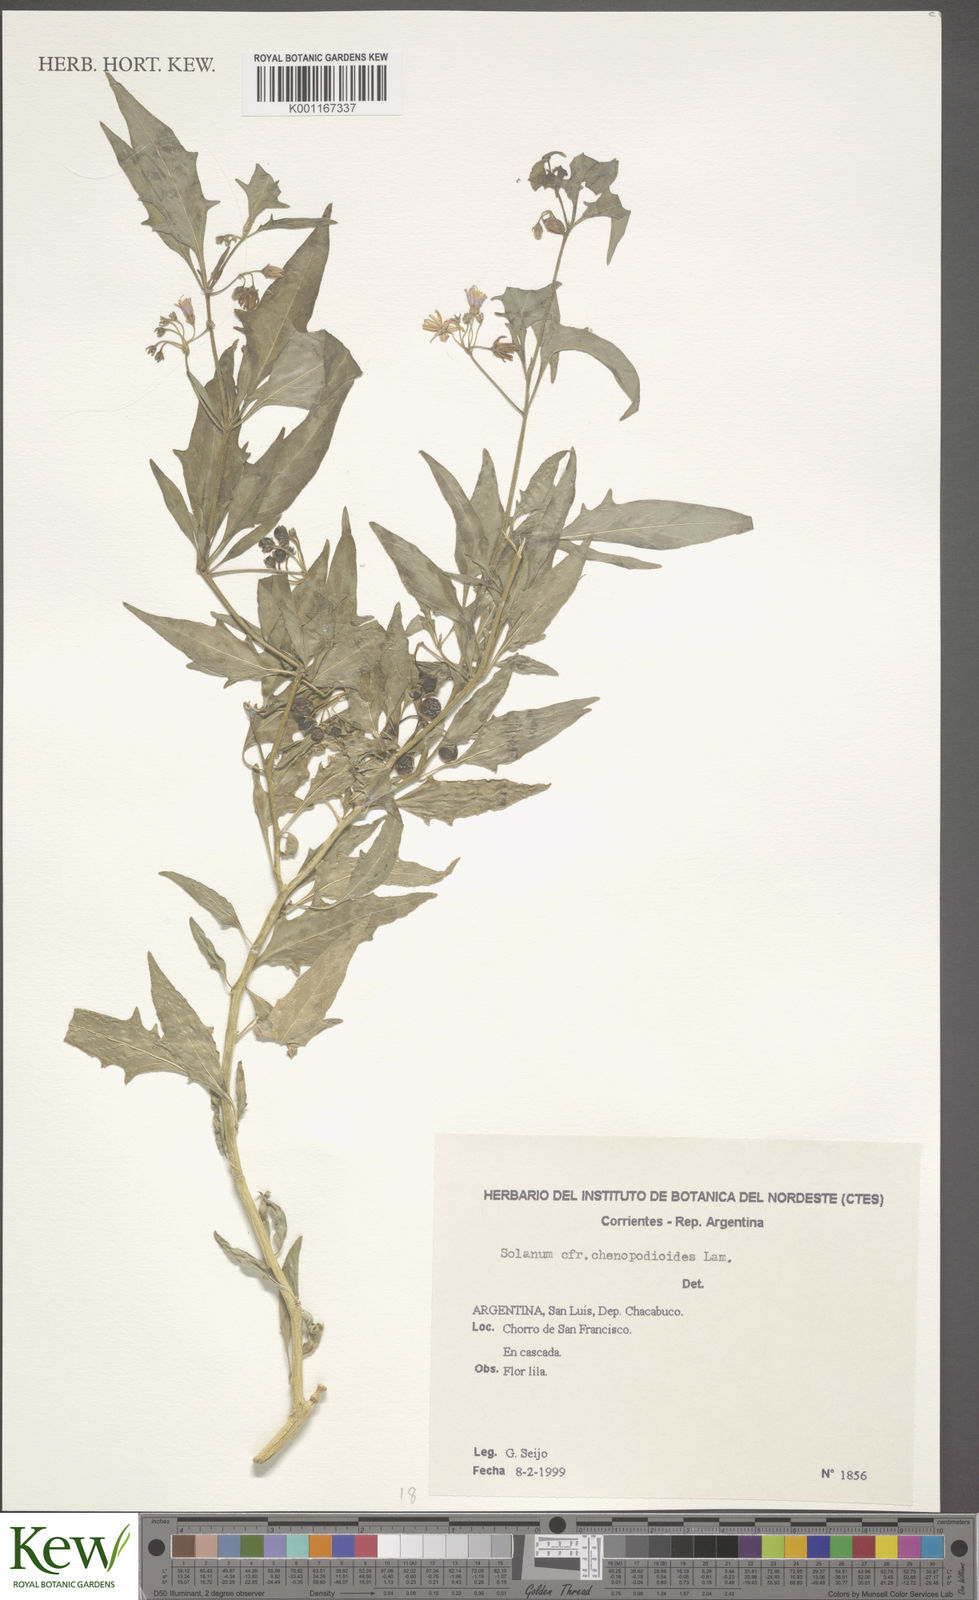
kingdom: Plantae
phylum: Tracheophyta
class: Magnoliopsida
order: Solanales
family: Solanaceae
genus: Solanum
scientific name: Solanum salicifolium
